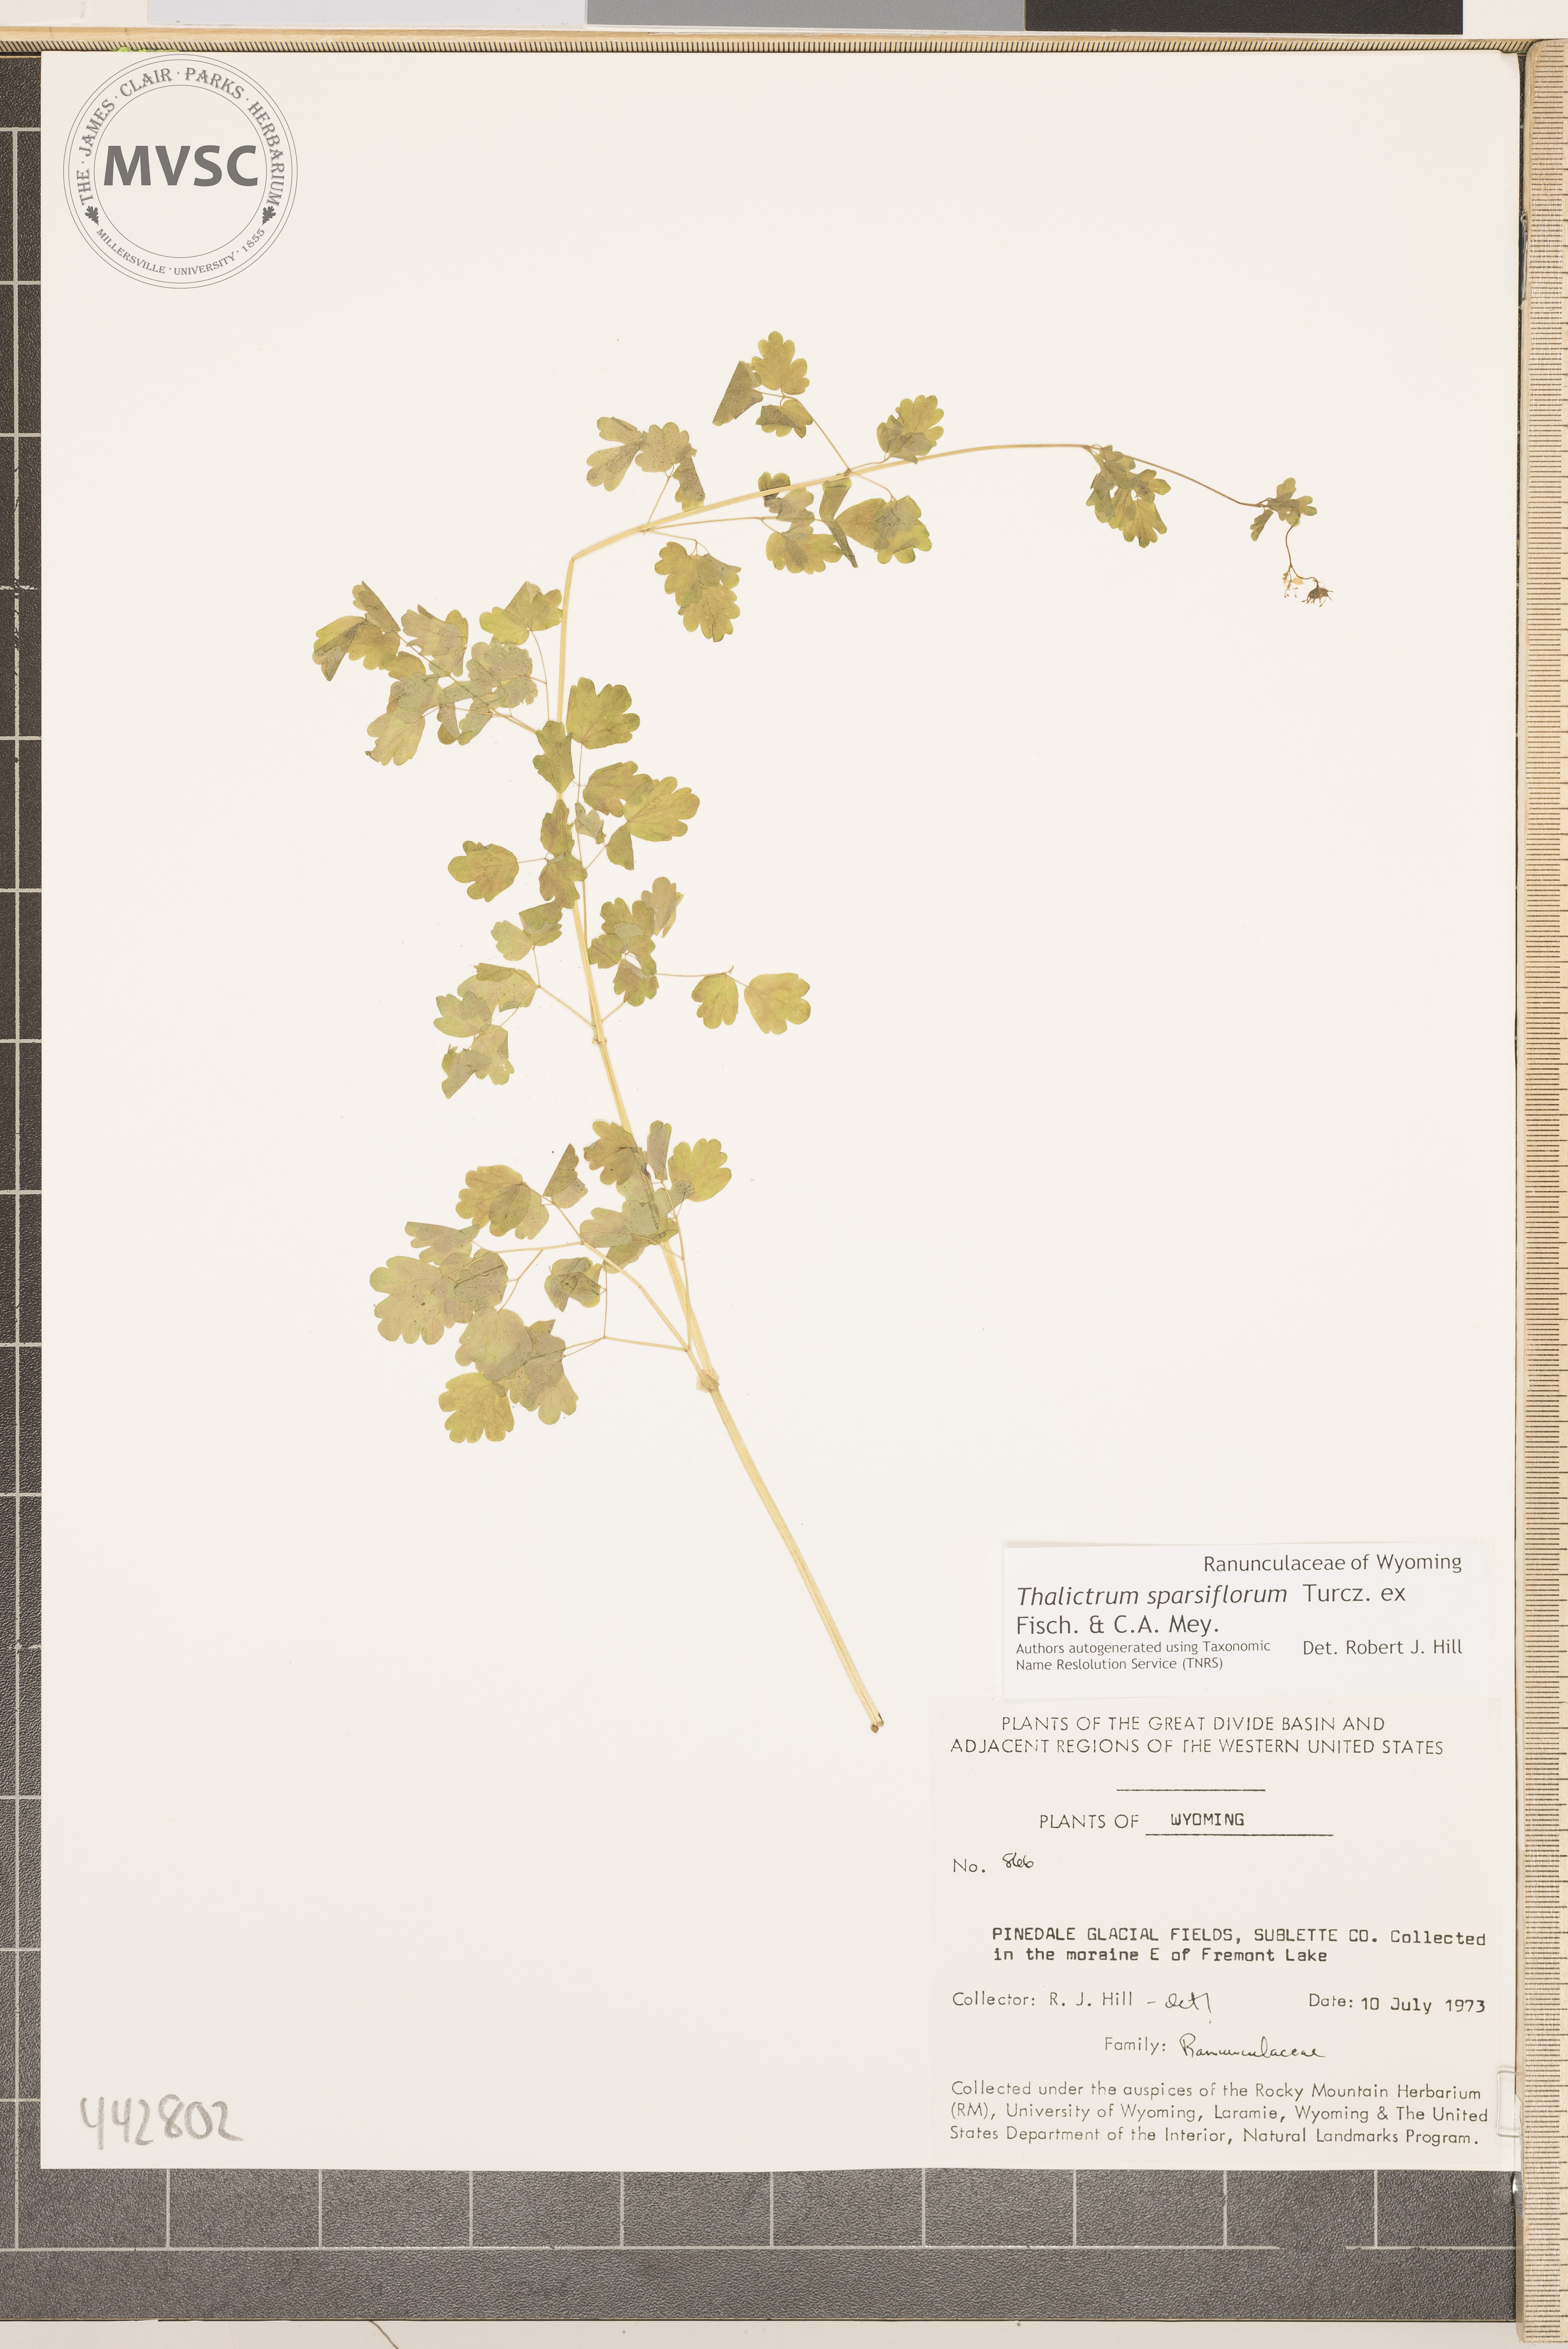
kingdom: Plantae
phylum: Tracheophyta
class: Magnoliopsida
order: Ranunculales
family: Ranunculaceae
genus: Thalictrum
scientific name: Thalictrum sparsiflorum
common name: Mountain meadow-rue
